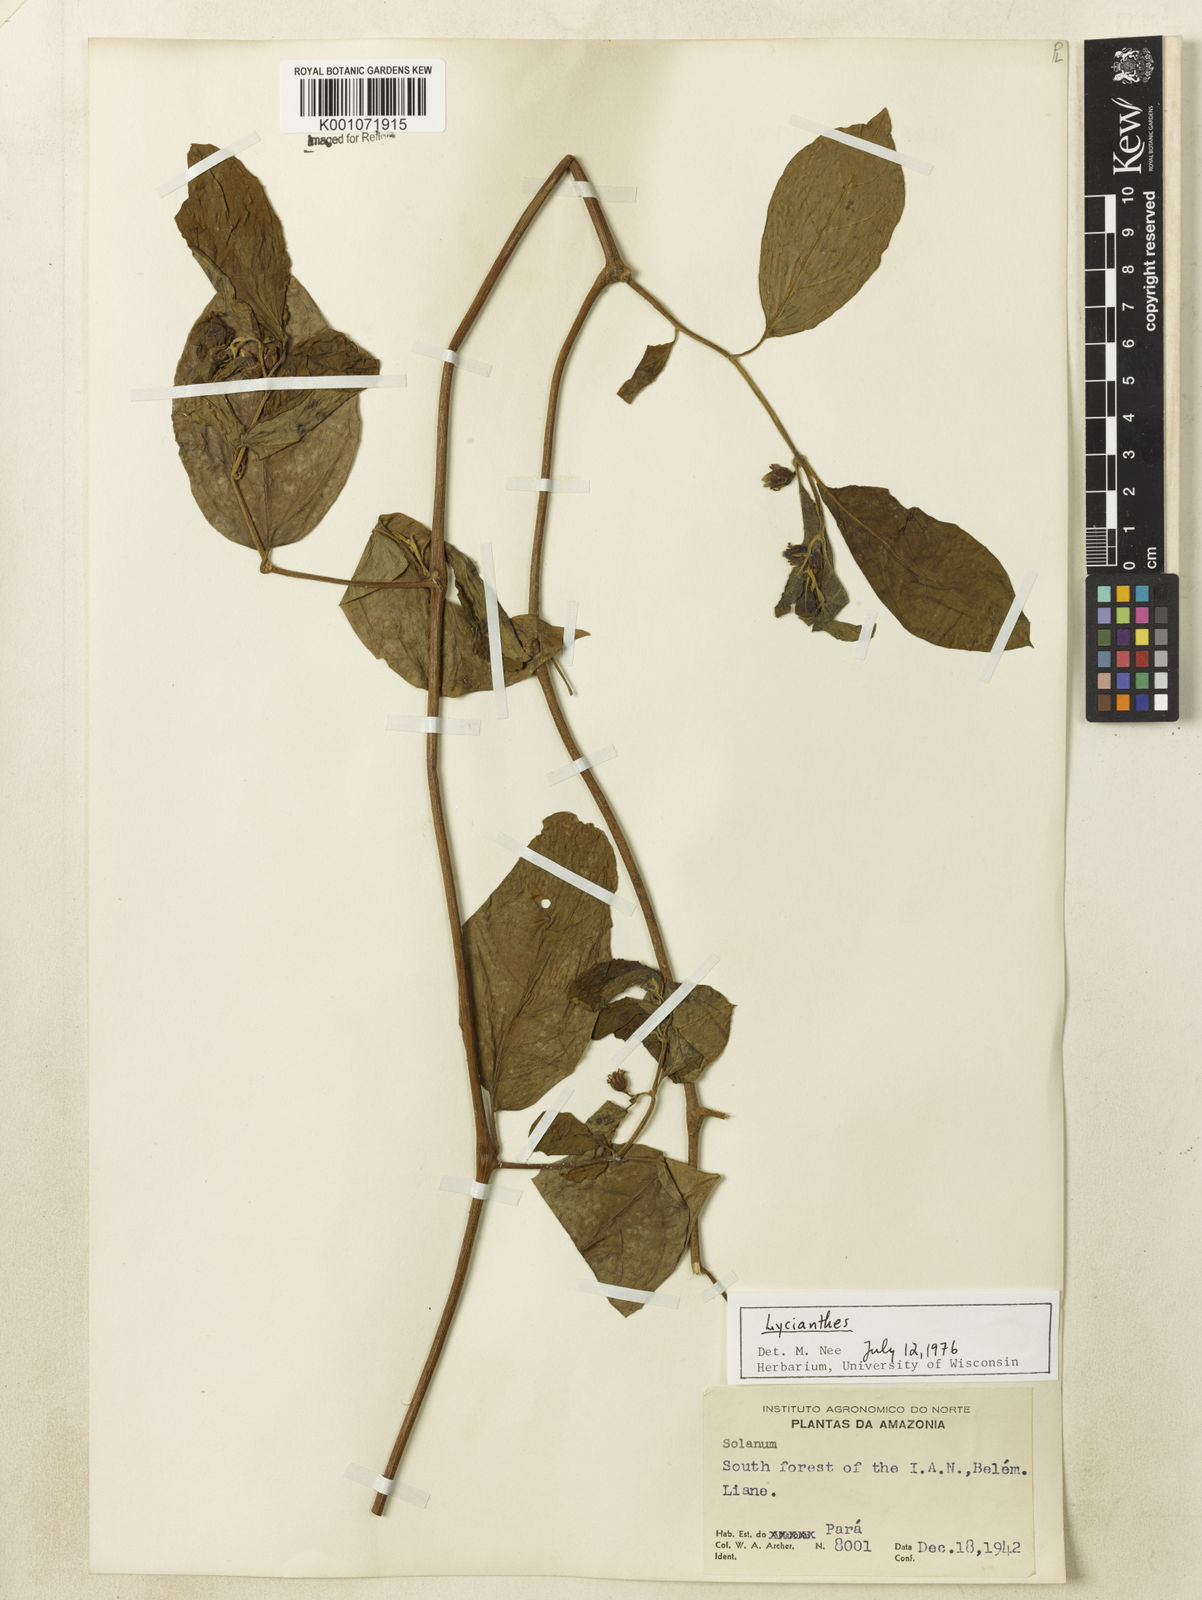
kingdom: Plantae
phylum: Tracheophyta
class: Magnoliopsida
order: Solanales
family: Solanaceae
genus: Lycianthes
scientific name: Lycianthes
